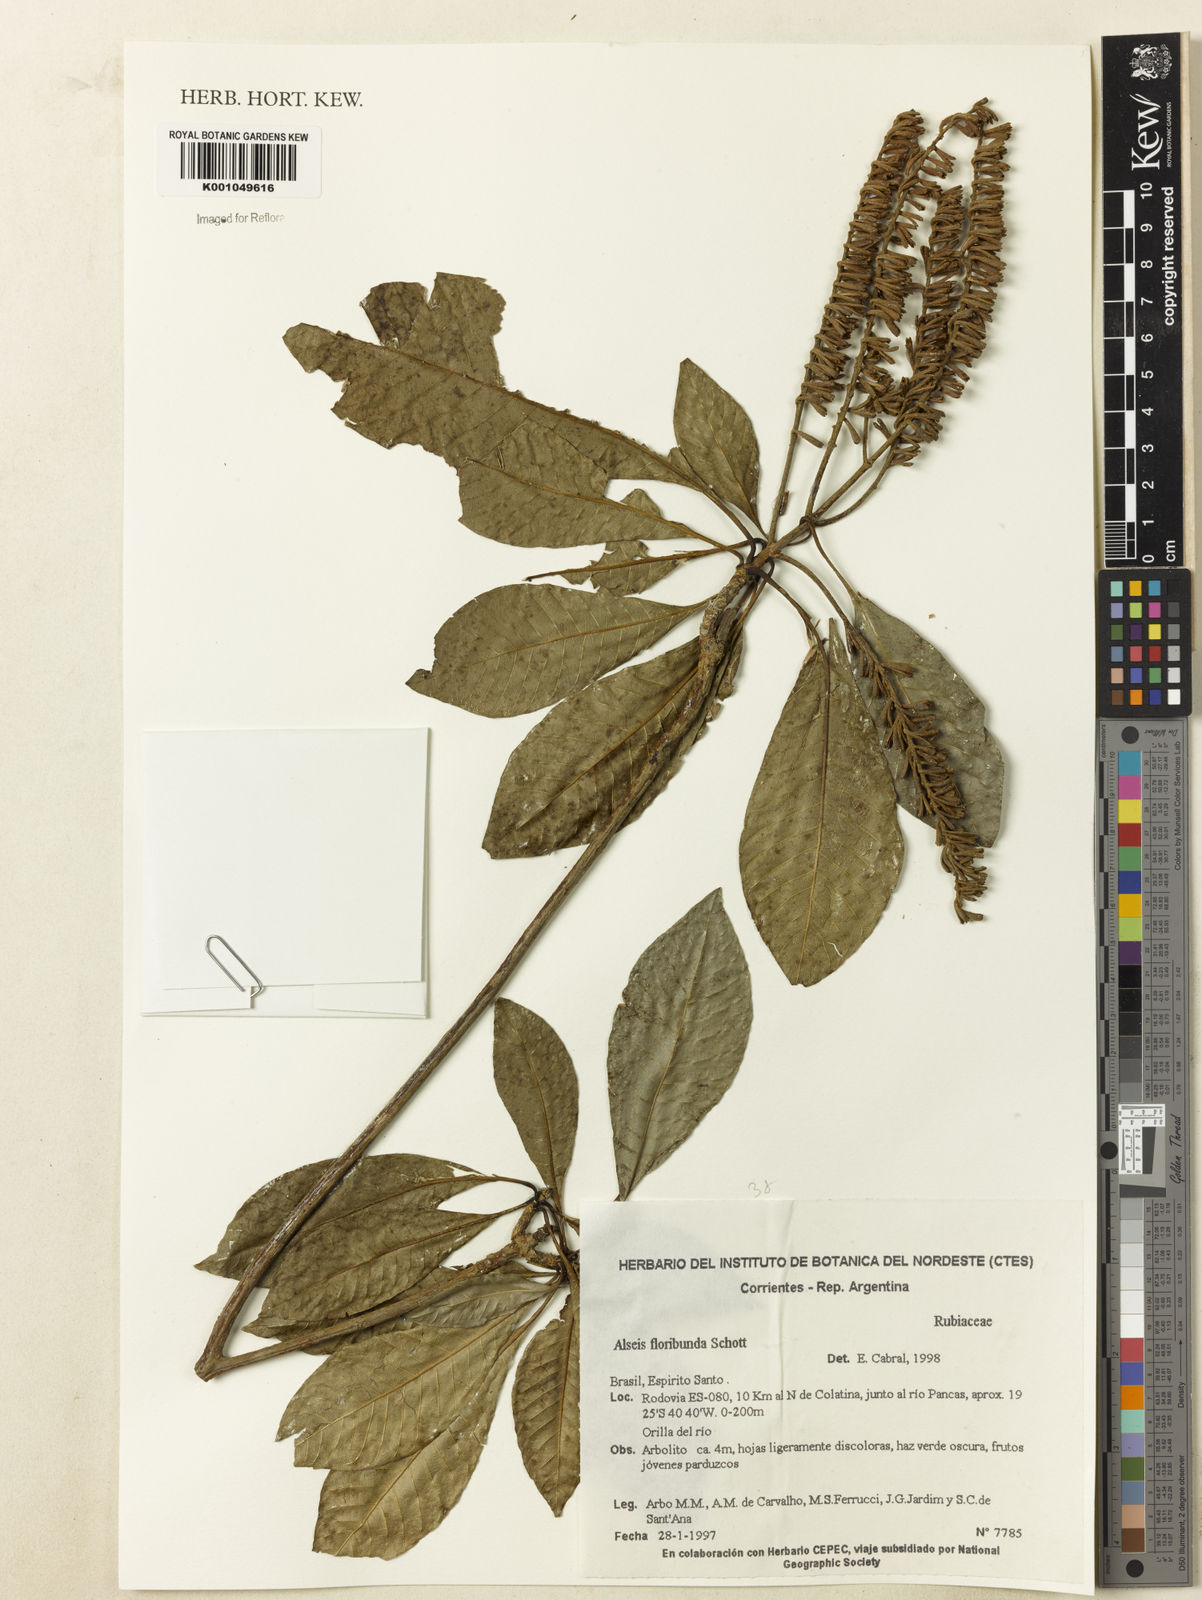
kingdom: Plantae
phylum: Tracheophyta
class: Magnoliopsida
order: Gentianales
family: Rubiaceae
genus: Alseis
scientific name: Alseis floribunda
